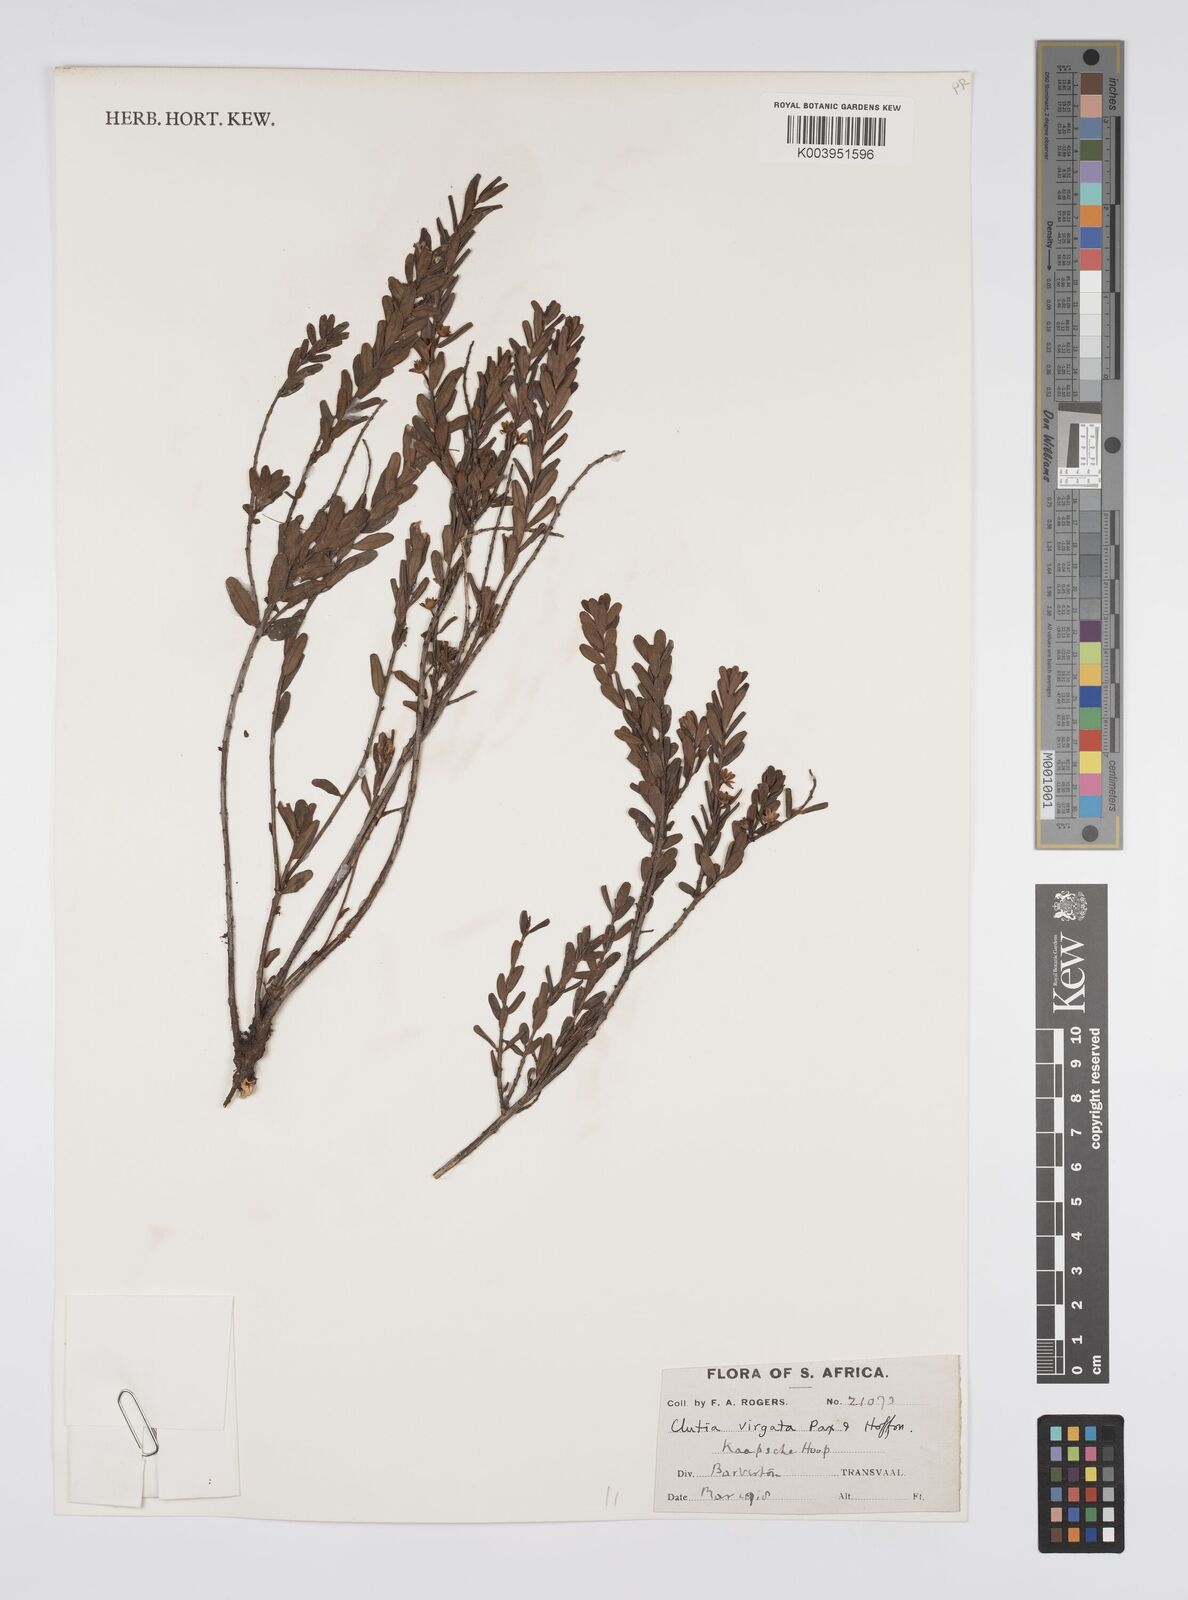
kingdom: Plantae
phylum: Tracheophyta
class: Magnoliopsida
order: Malpighiales
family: Peraceae
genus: Clutia
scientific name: Clutia virgata
